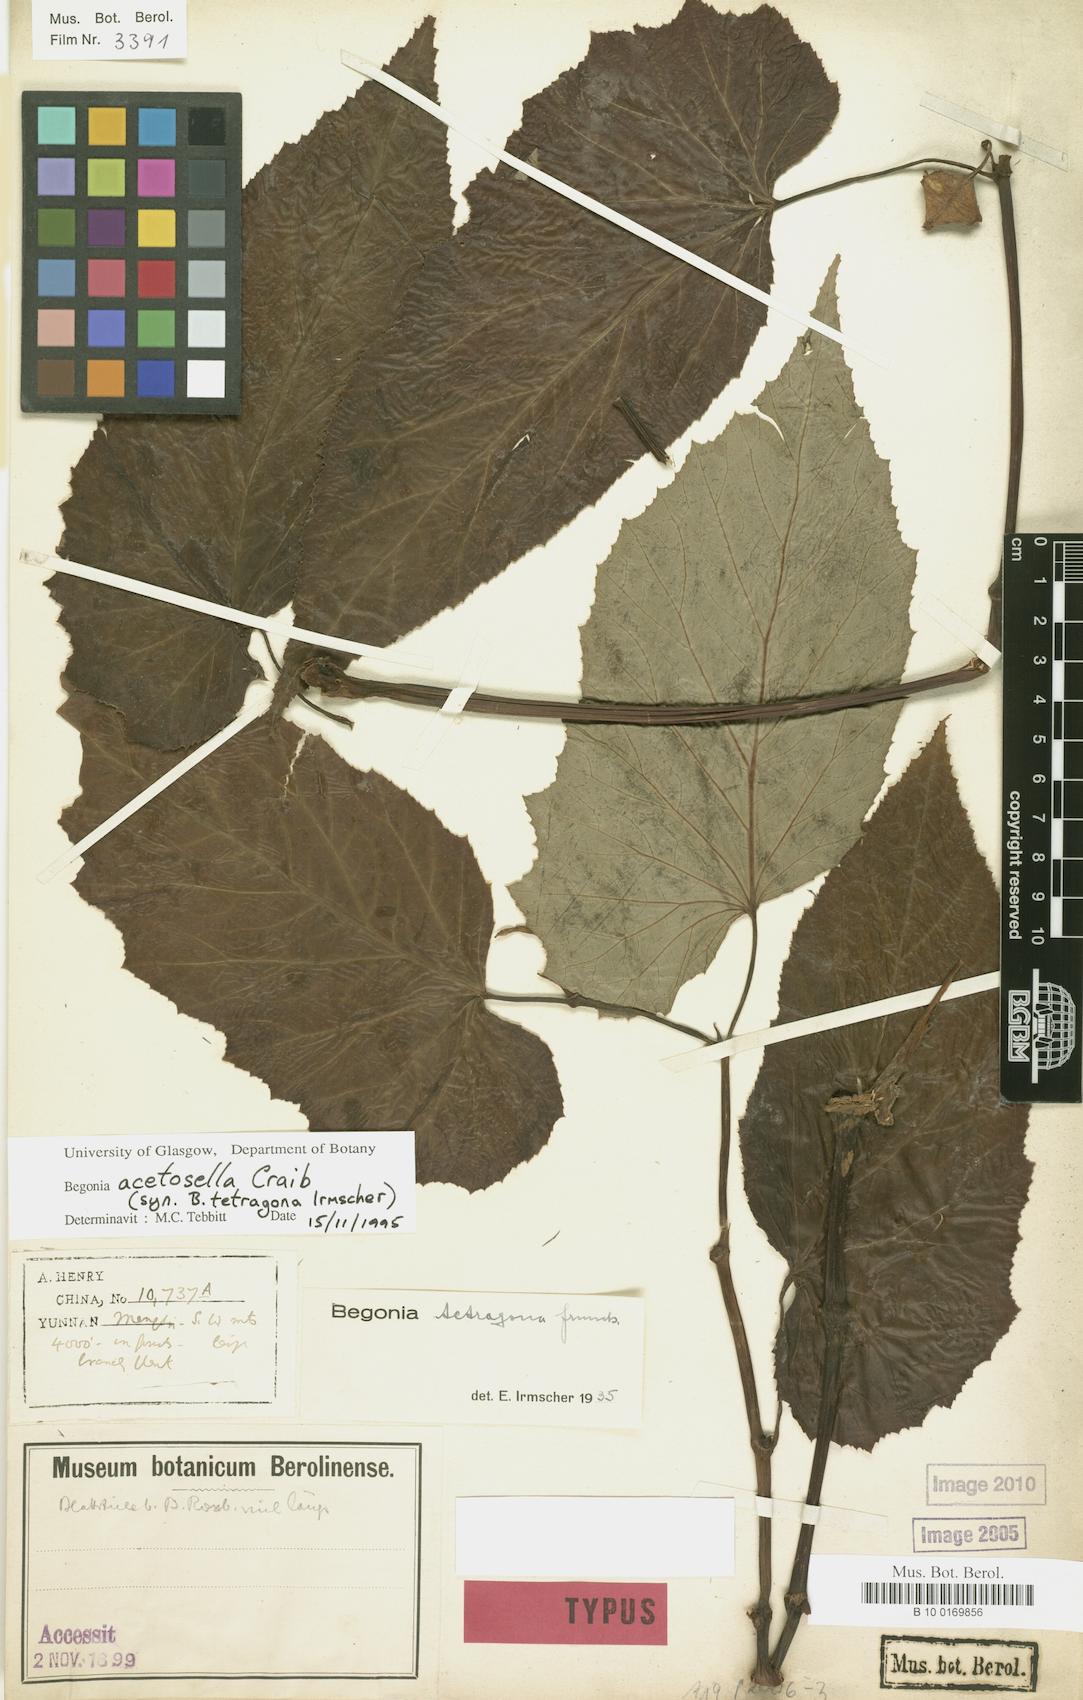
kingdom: Plantae
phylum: Tracheophyta
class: Magnoliopsida
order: Cucurbitales
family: Begoniaceae
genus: Begonia
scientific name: Begonia acetosella
